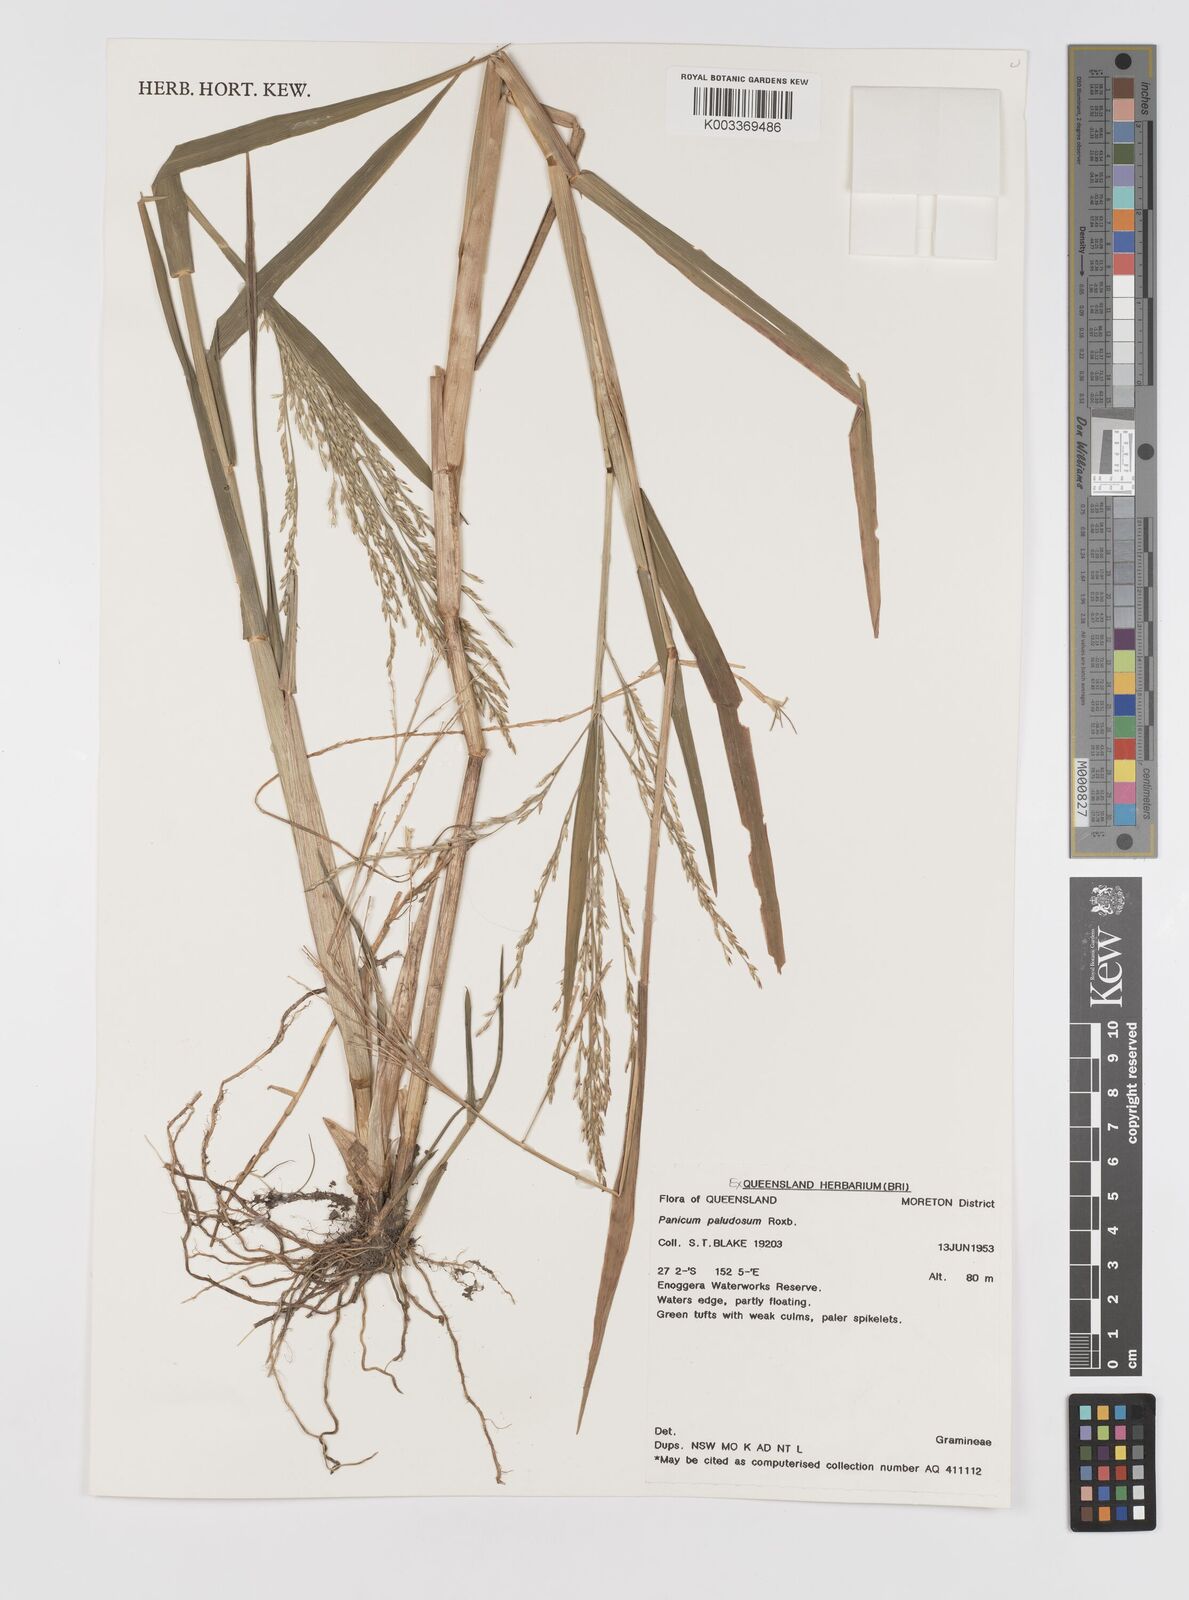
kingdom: Plantae
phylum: Tracheophyta
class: Liliopsida
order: Poales
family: Poaceae
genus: Louisiella
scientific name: Louisiella paludosa
